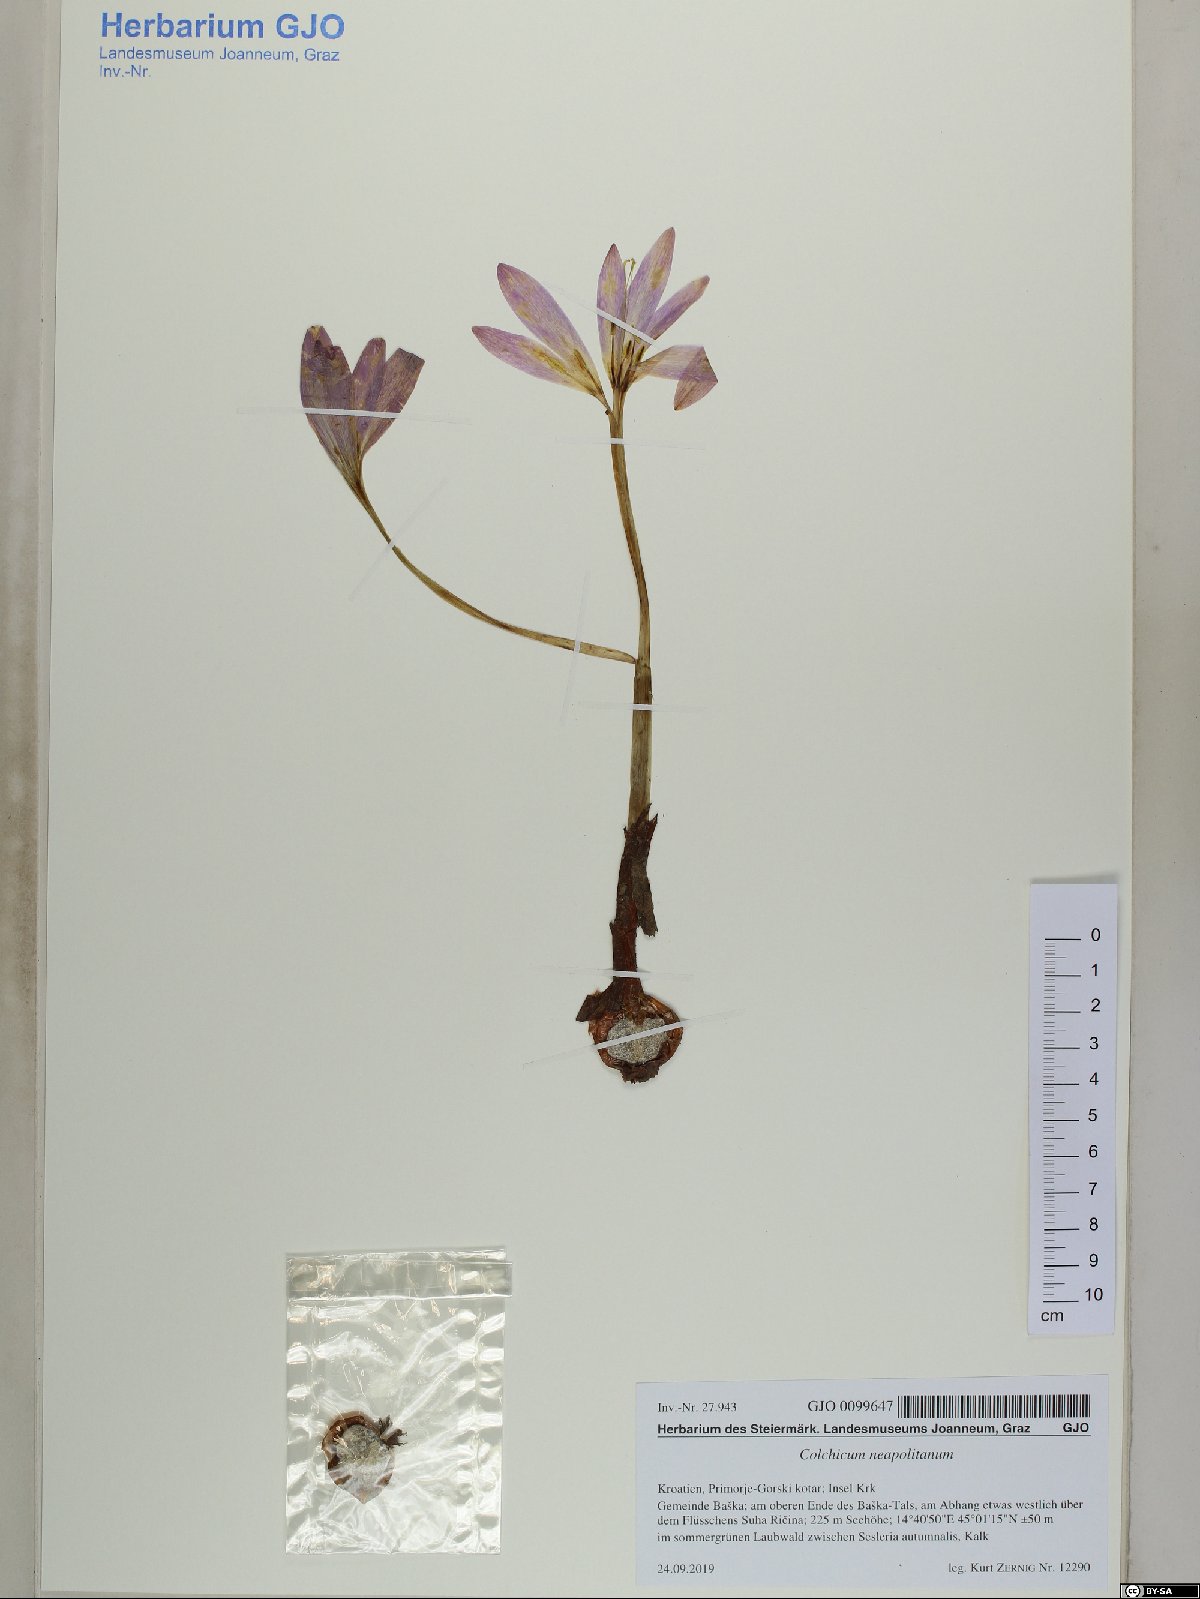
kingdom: Plantae
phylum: Tracheophyta
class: Liliopsida
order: Liliales
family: Colchicaceae
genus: Colchicum
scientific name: Colchicum neapolitanum
